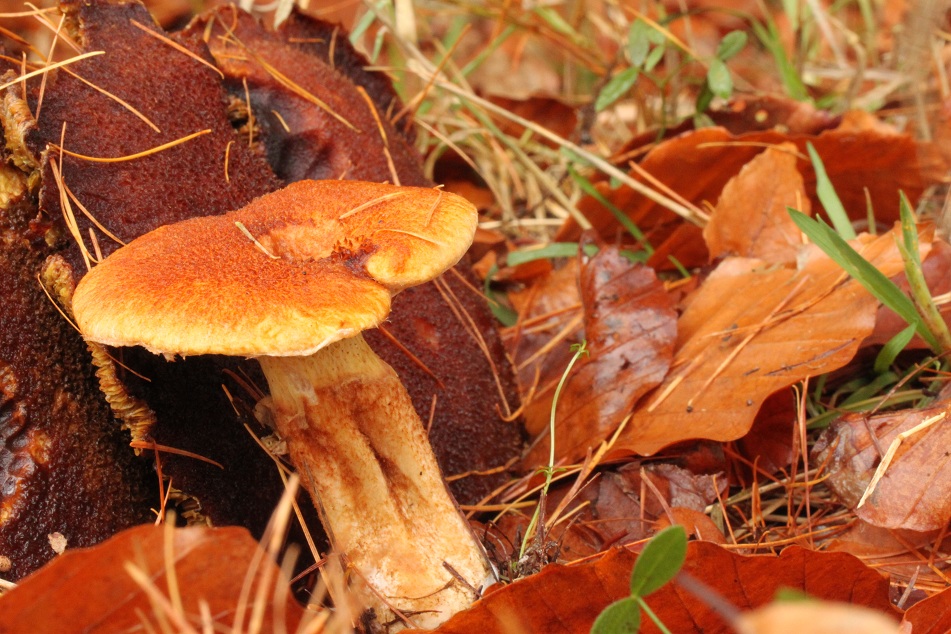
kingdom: Fungi
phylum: Basidiomycota
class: Agaricomycetes
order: Boletales
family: Suillaceae
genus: Suillus
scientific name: Suillus cavipes
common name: hulstokket slimrørhat
